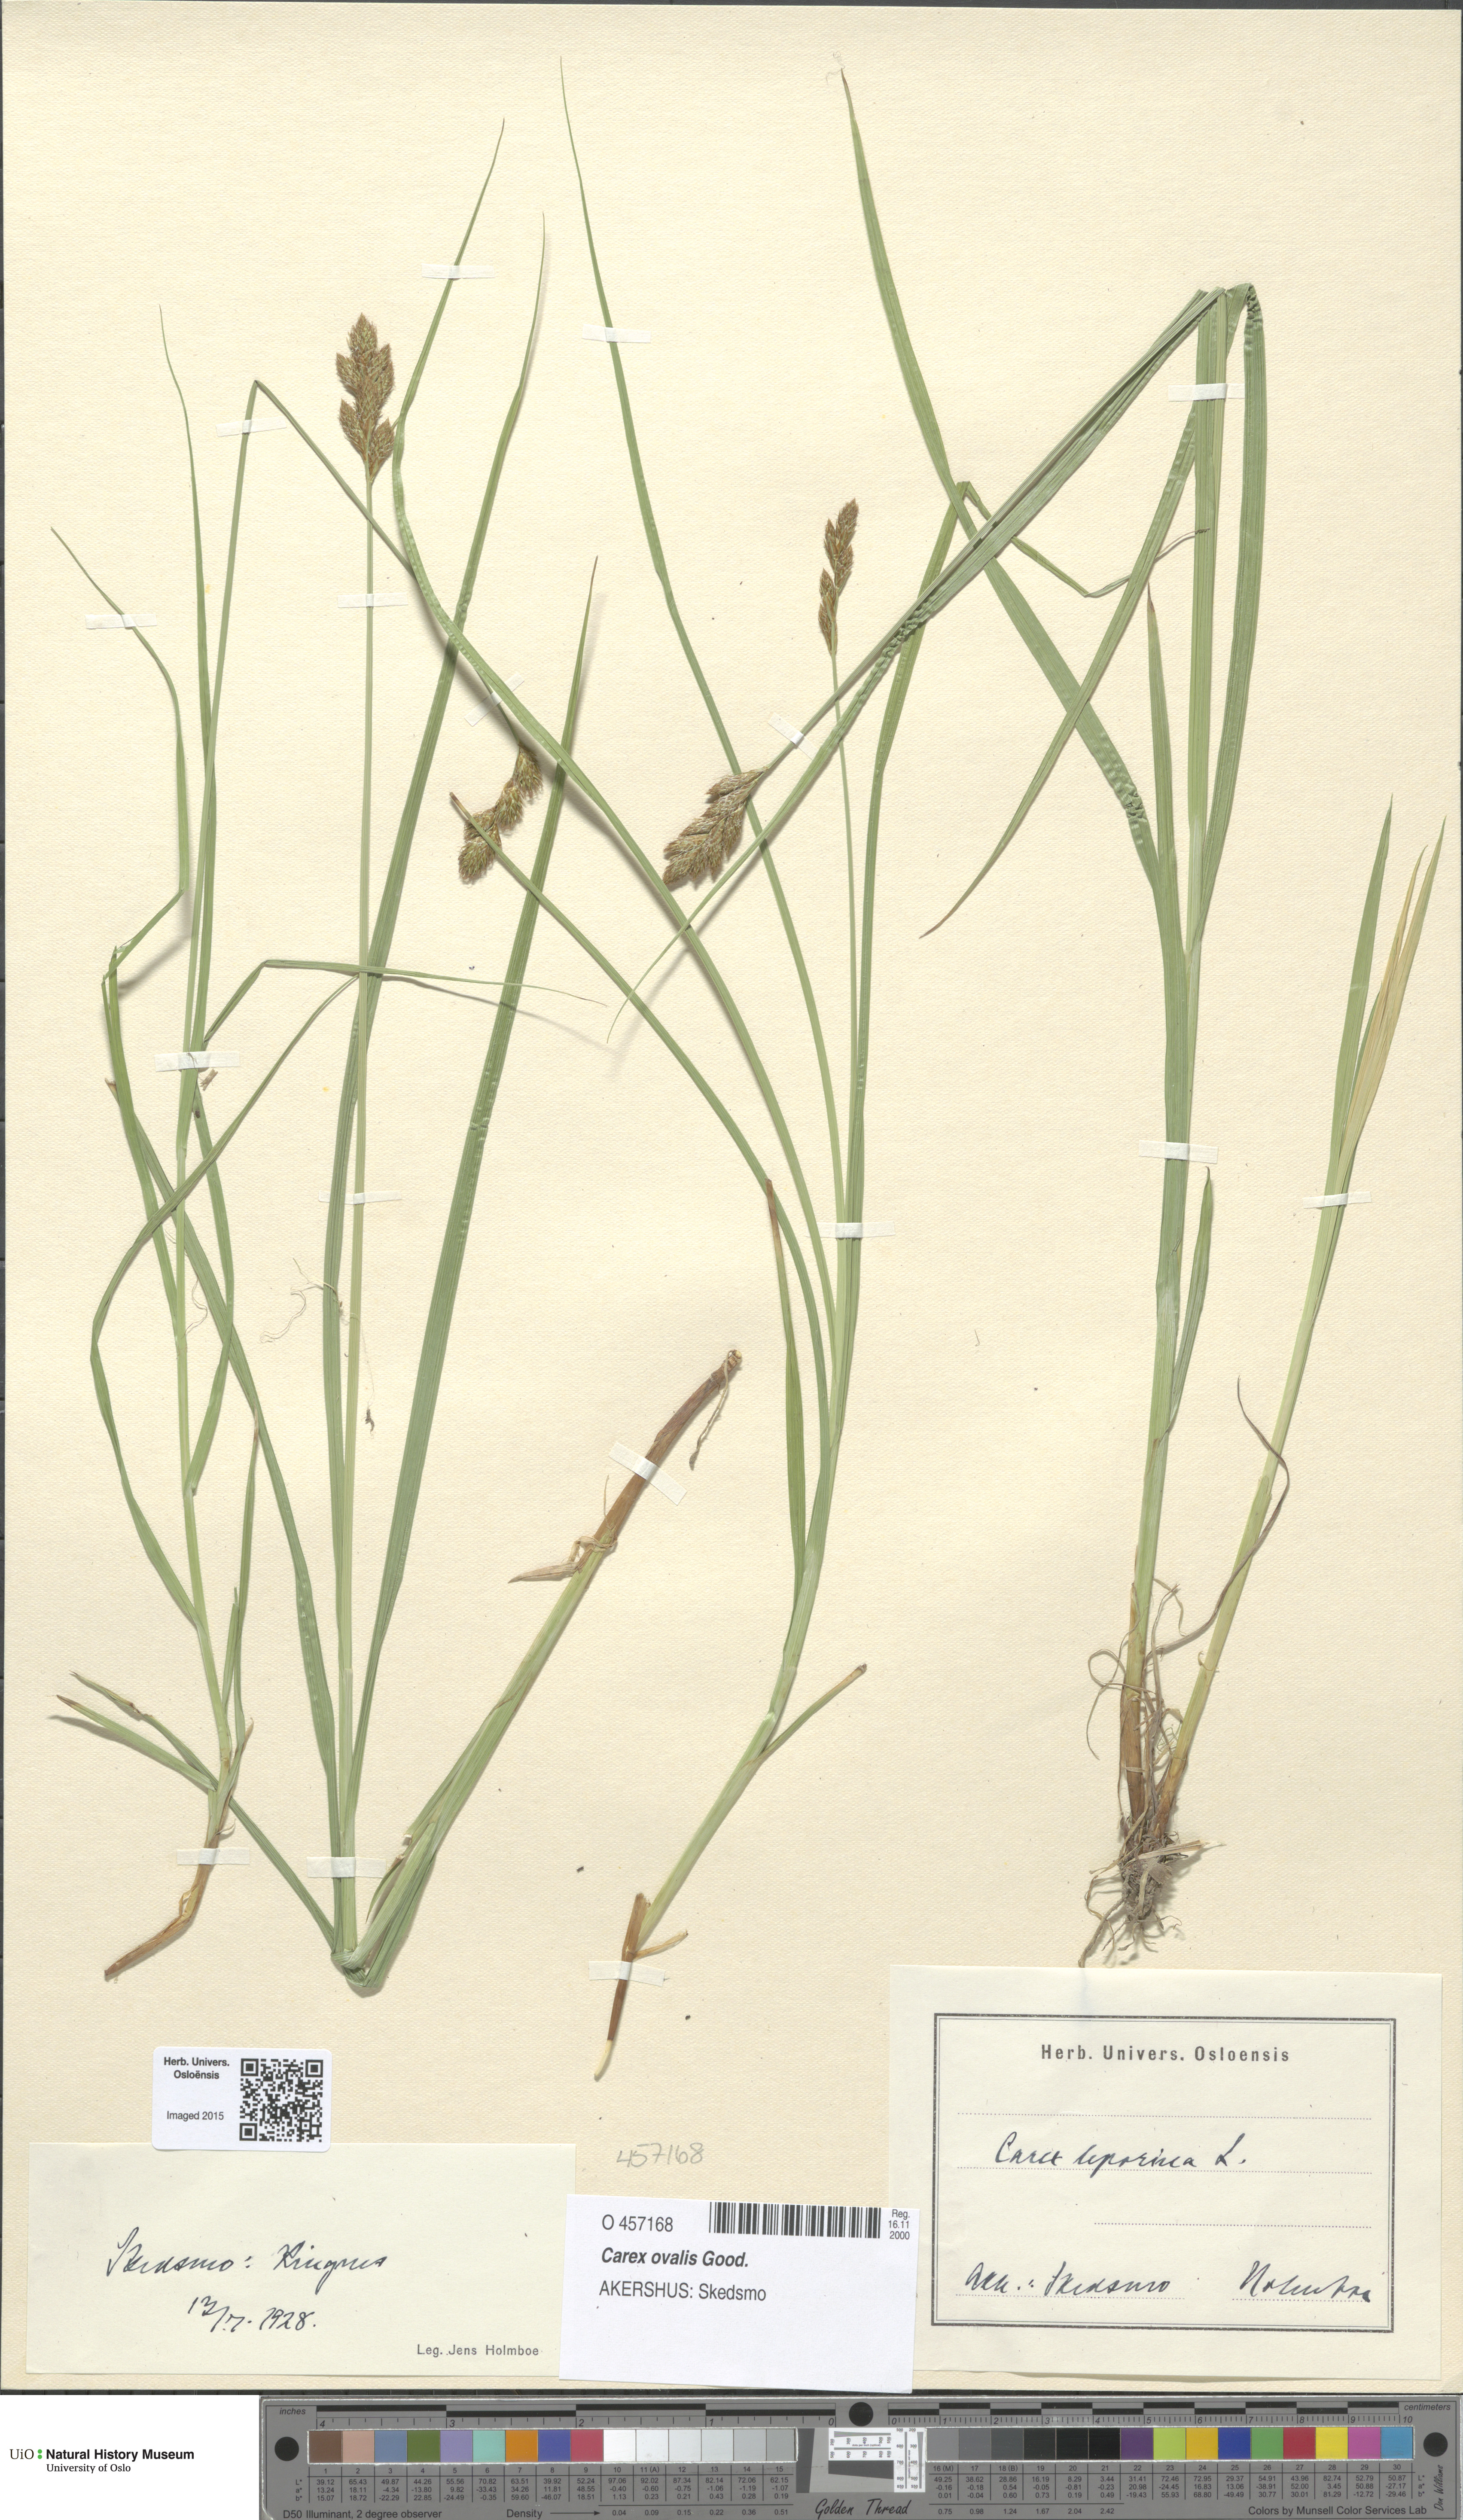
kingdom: Plantae
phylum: Tracheophyta
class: Liliopsida
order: Poales
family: Cyperaceae
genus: Carex
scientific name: Carex leporina
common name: Oval sedge
